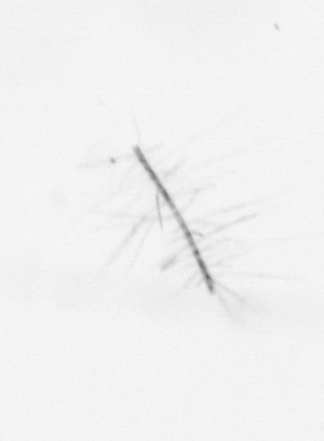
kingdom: Chromista
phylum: Ochrophyta
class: Bacillariophyceae
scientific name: Bacillariophyceae
